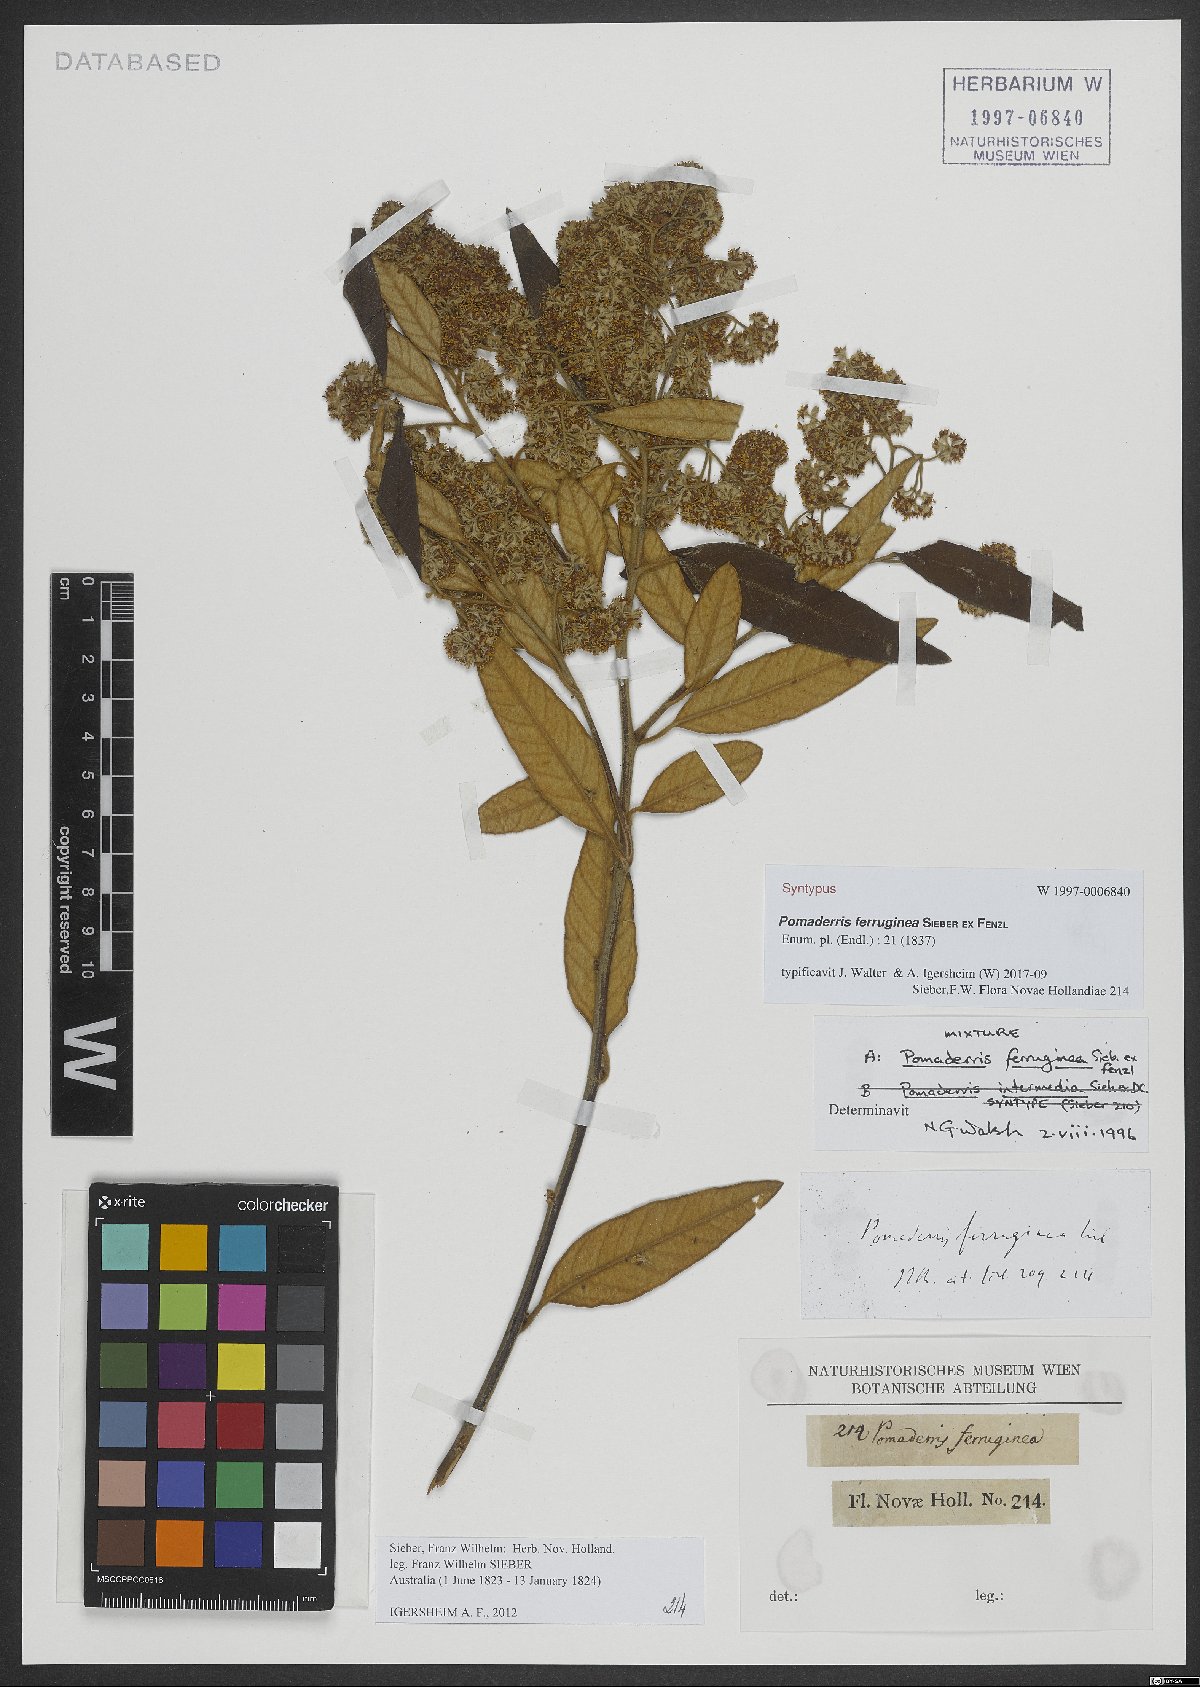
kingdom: Plantae
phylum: Tracheophyta
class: Magnoliopsida
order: Rosales
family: Rhamnaceae
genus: Pomaderris
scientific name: Pomaderris wendlandiana
